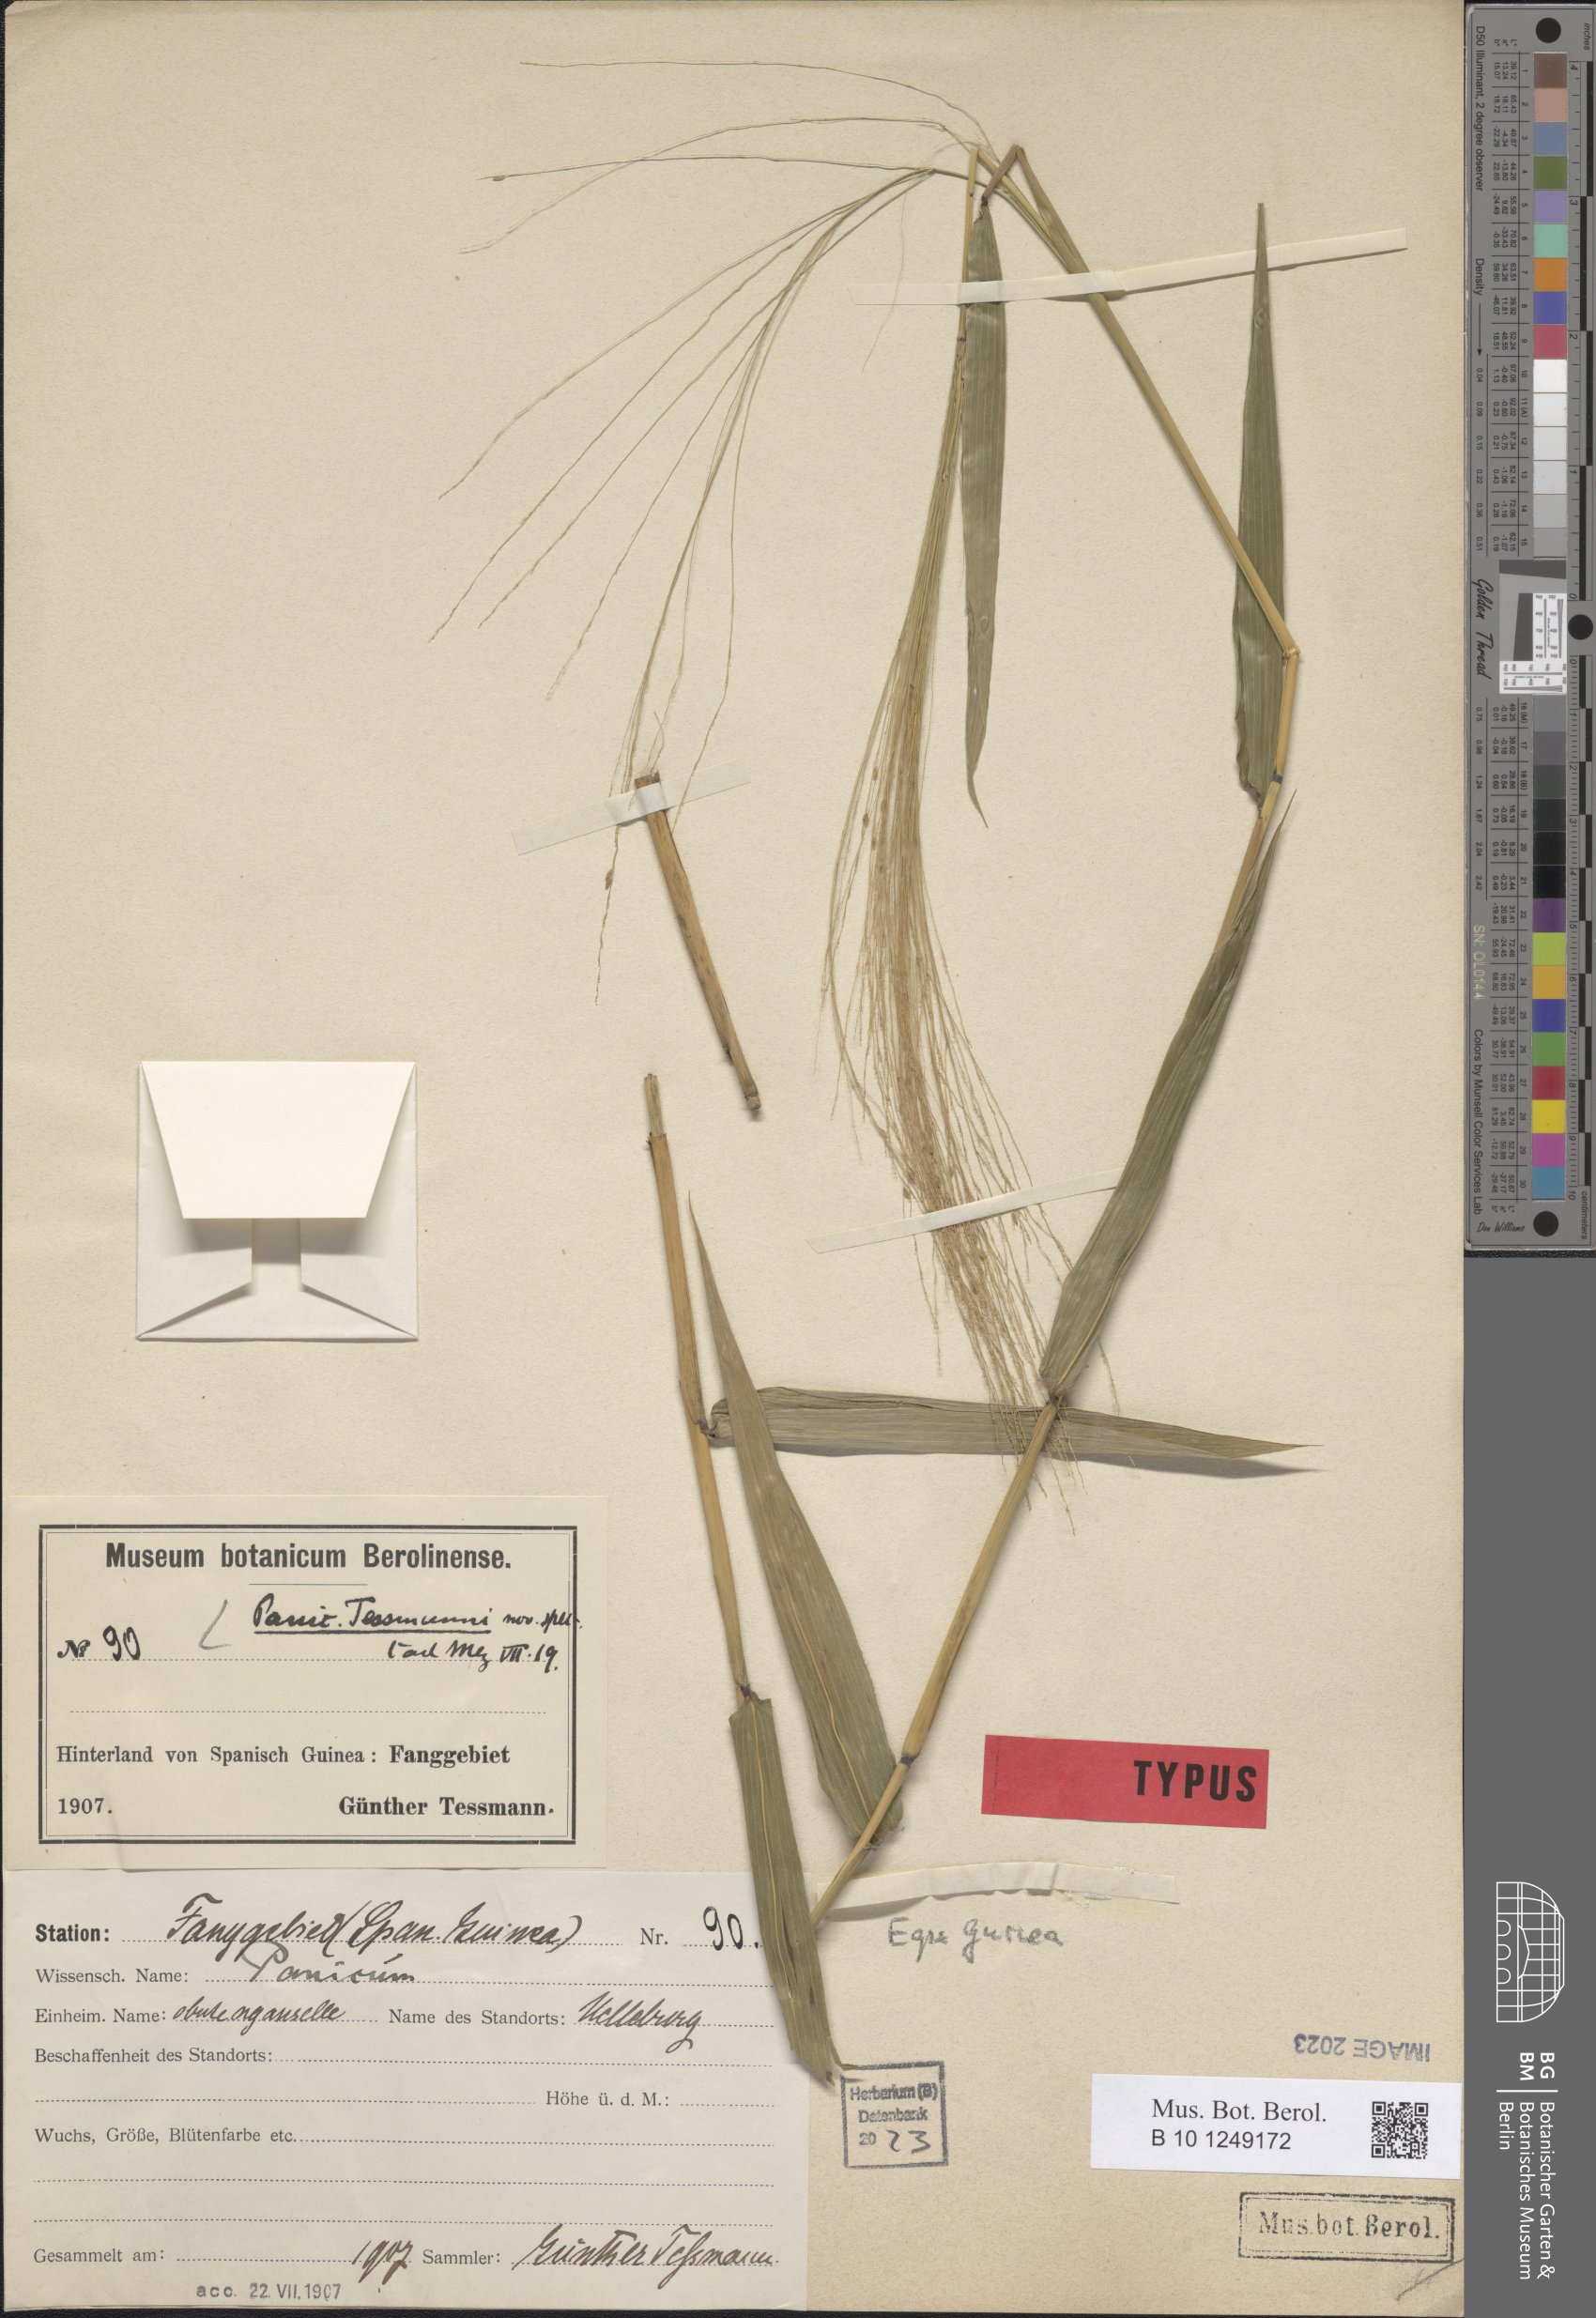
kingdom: Plantae
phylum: Tracheophyta
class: Liliopsida
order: Poales
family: Poaceae
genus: Panicum
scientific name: Panicum
